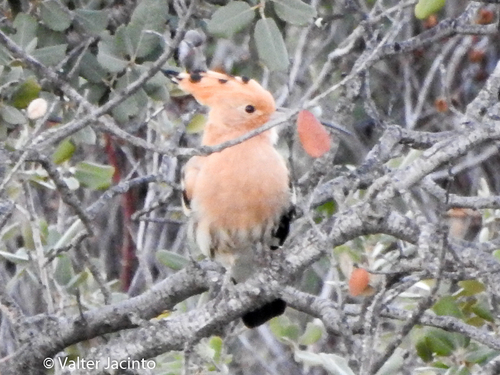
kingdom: Animalia
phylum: Chordata
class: Aves
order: Bucerotiformes
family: Upupidae
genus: Upupa
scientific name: Upupa epops
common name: Eurasian hoopoe
